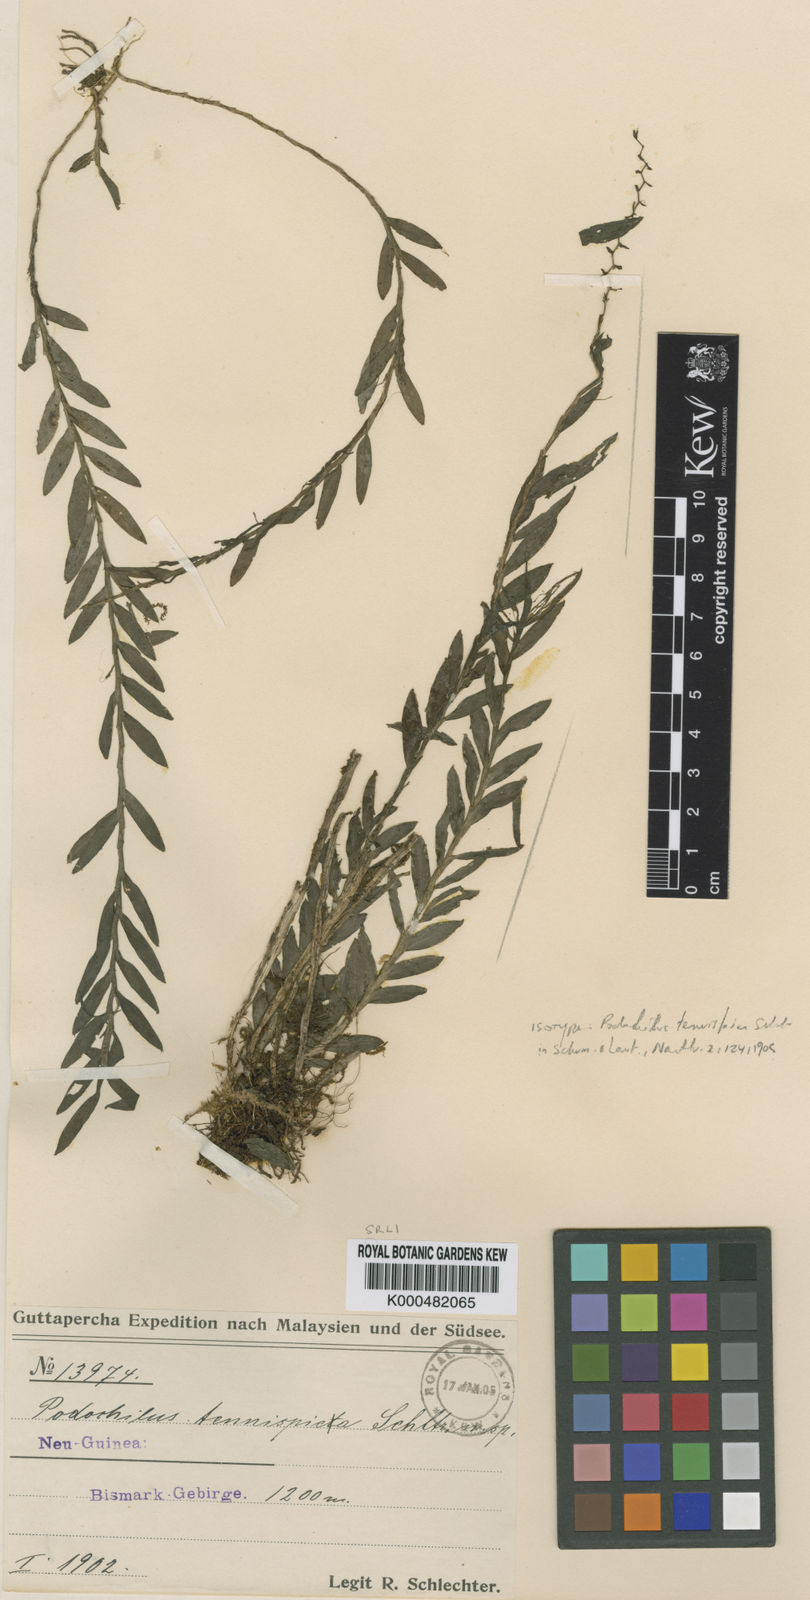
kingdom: Plantae
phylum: Tracheophyta
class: Liliopsida
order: Asparagales
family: Orchidaceae
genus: Appendicula
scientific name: Appendicula tenuispica
